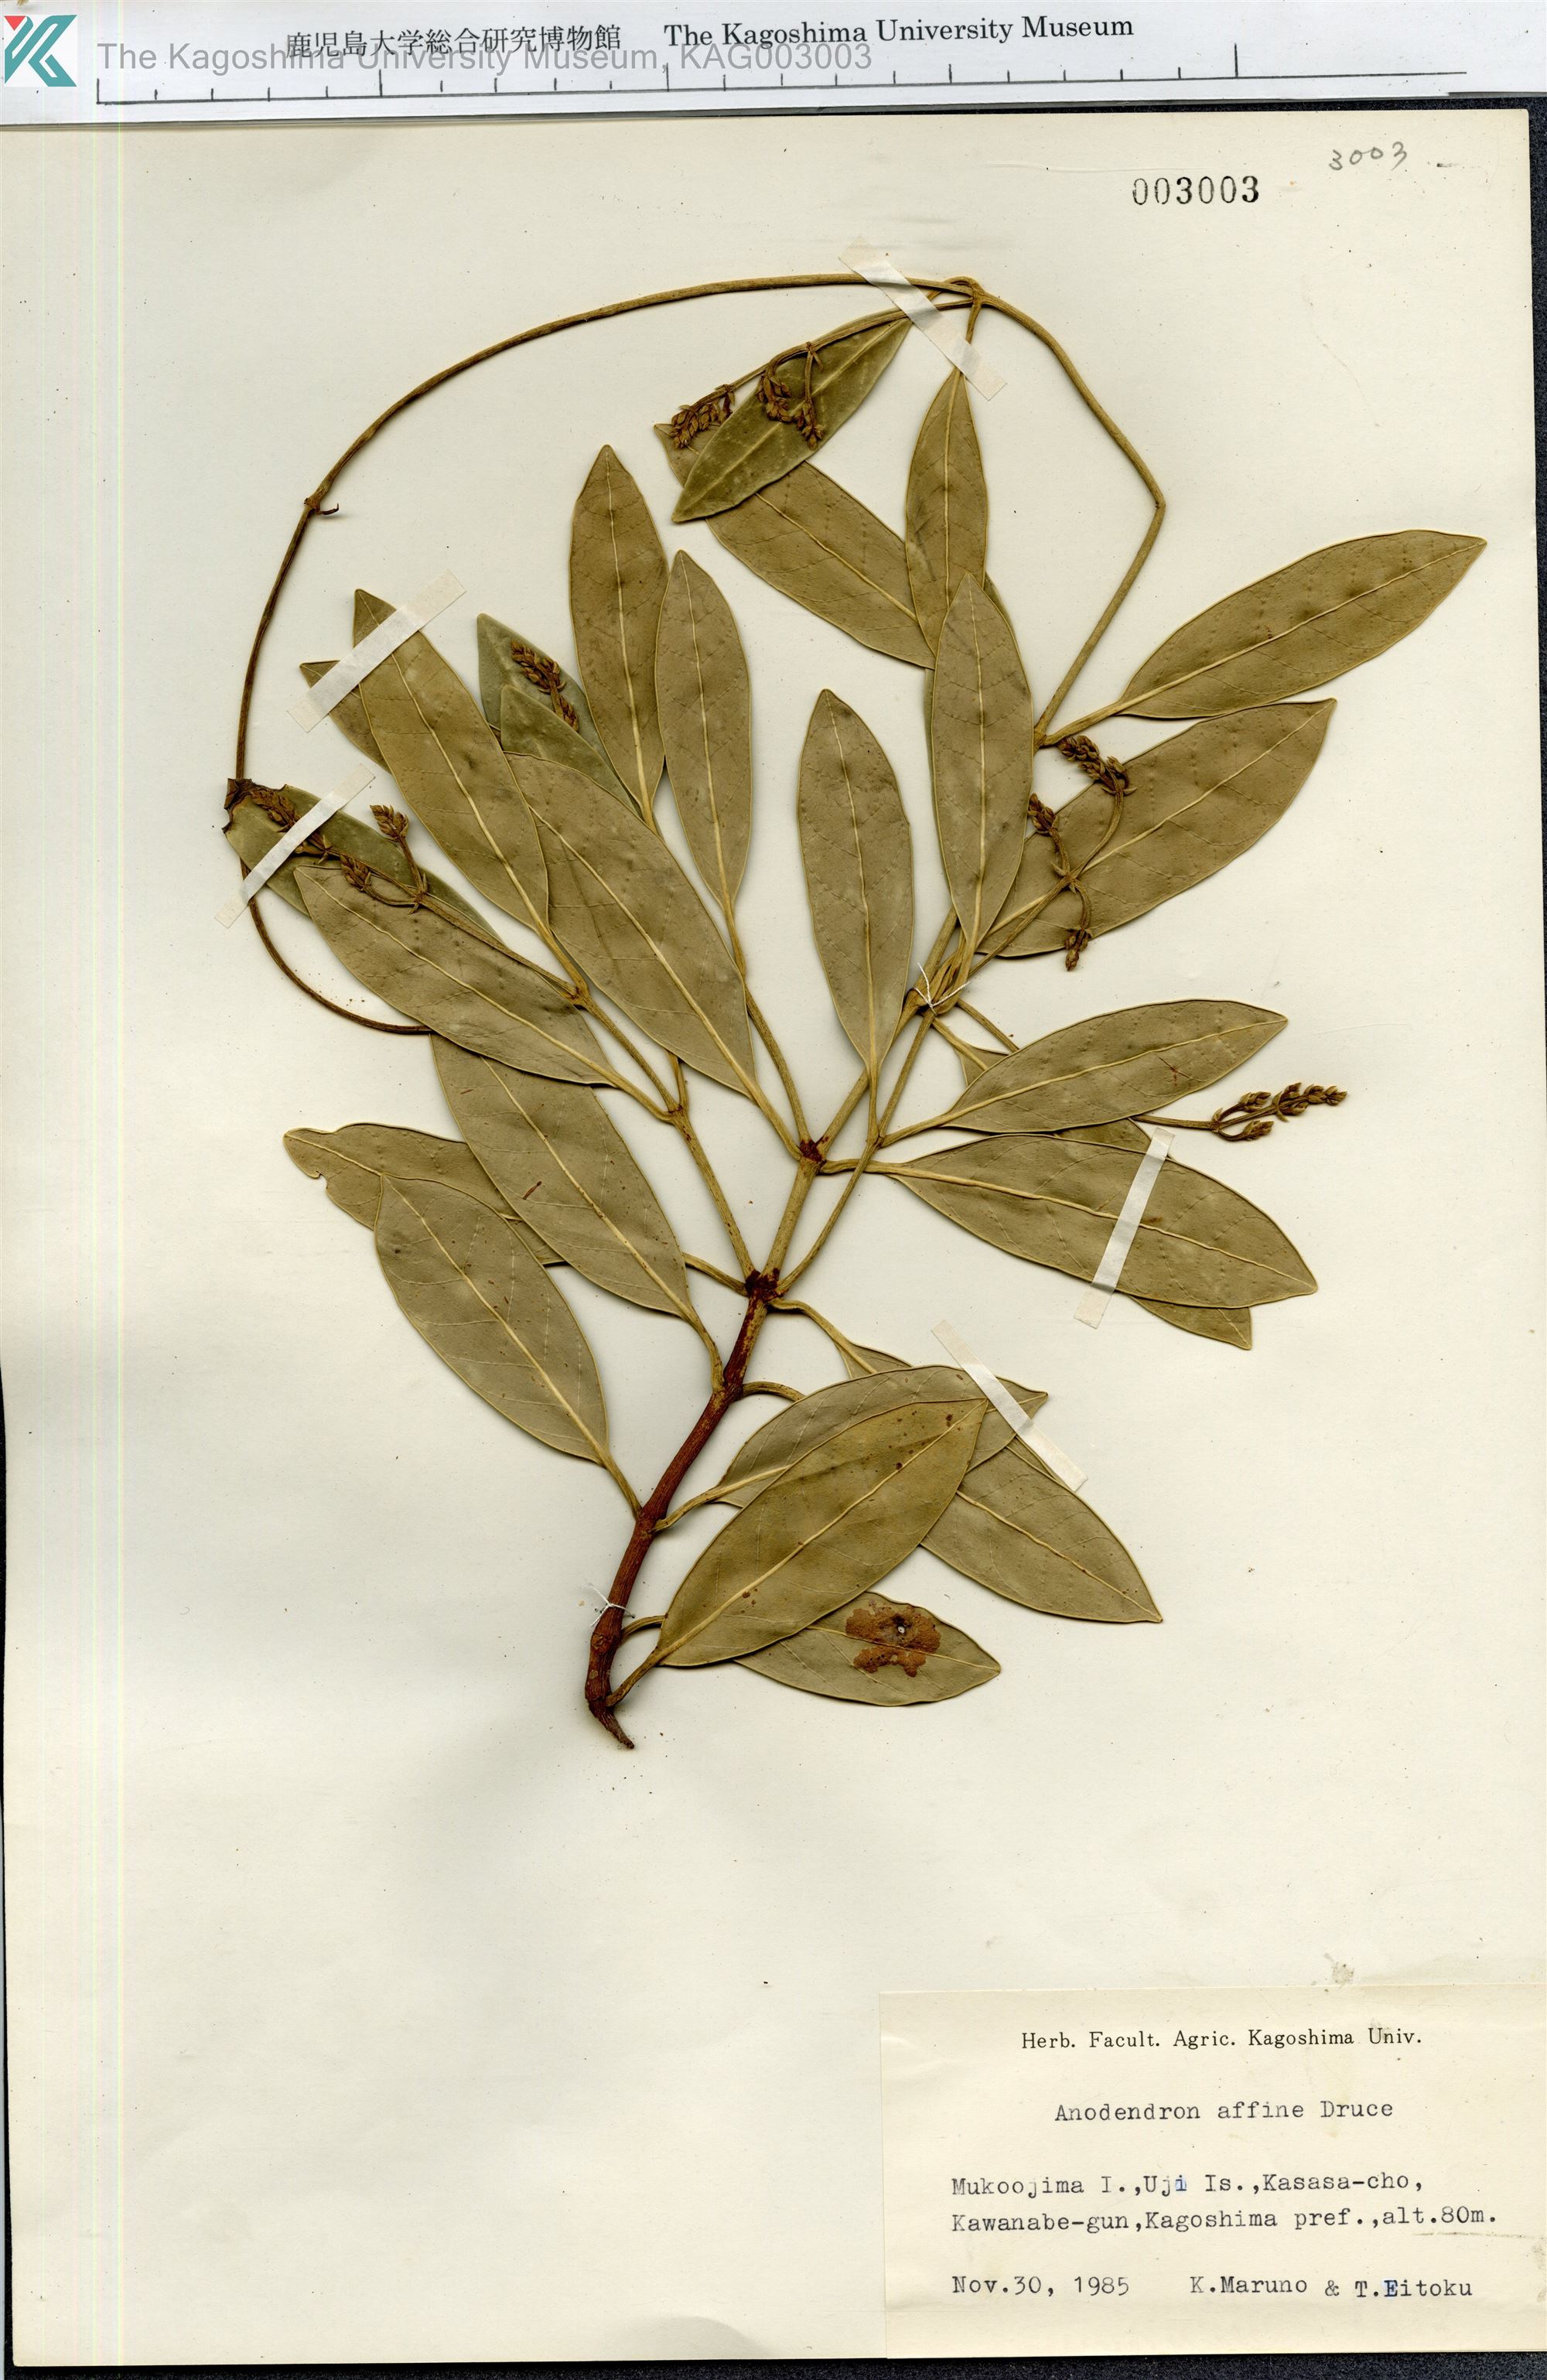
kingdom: Plantae
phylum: Tracheophyta
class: Magnoliopsida
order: Gentianales
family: Apocynaceae
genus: Anodendron
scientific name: Anodendron affine
